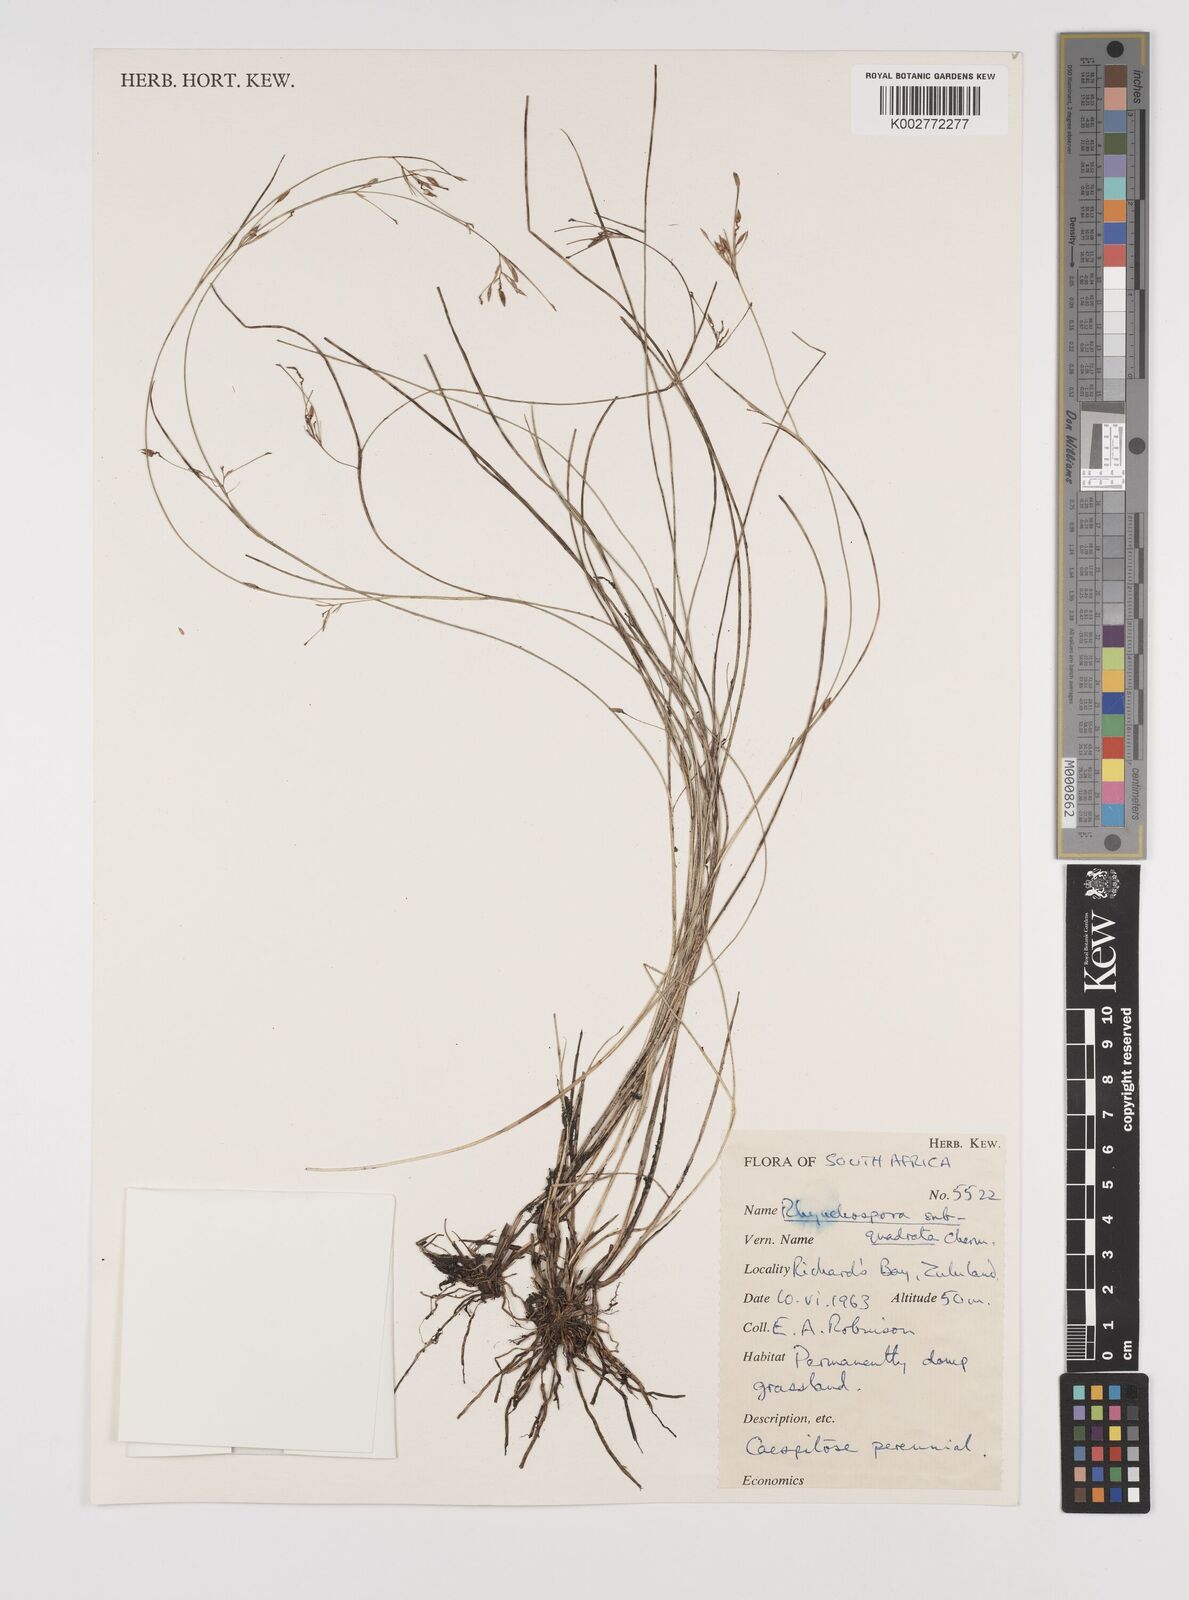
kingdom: Plantae
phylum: Tracheophyta
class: Liliopsida
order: Poales
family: Cyperaceae
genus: Rhynchospora
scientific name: Rhynchospora gracillima
